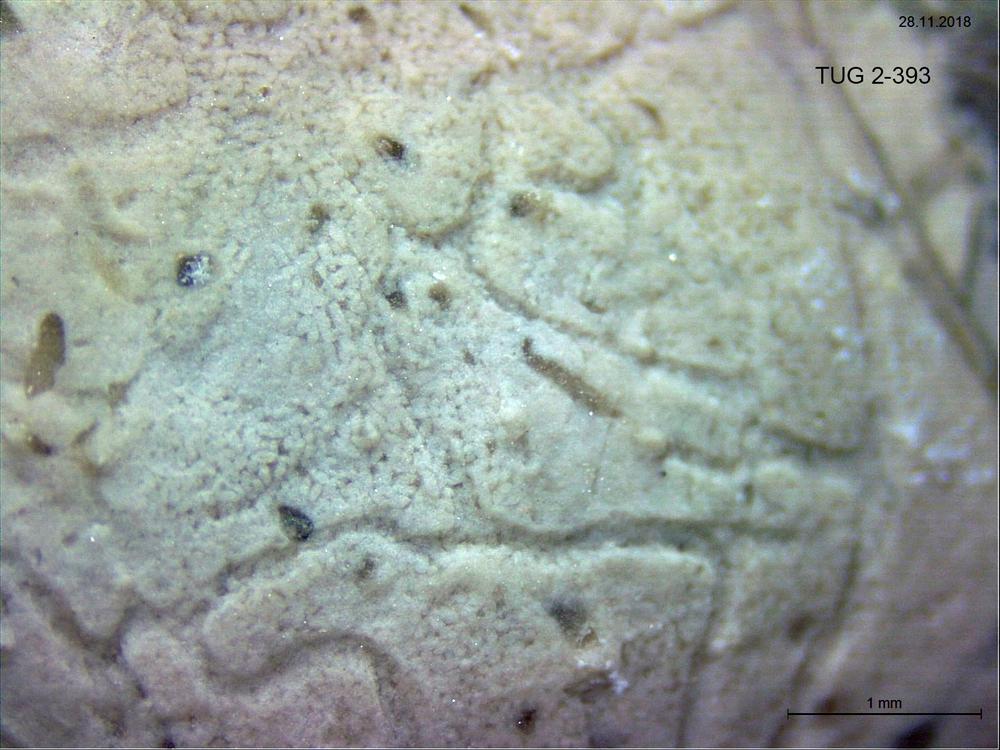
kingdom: Animalia
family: Coprulidae
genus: Coprulus
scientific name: Coprulus
